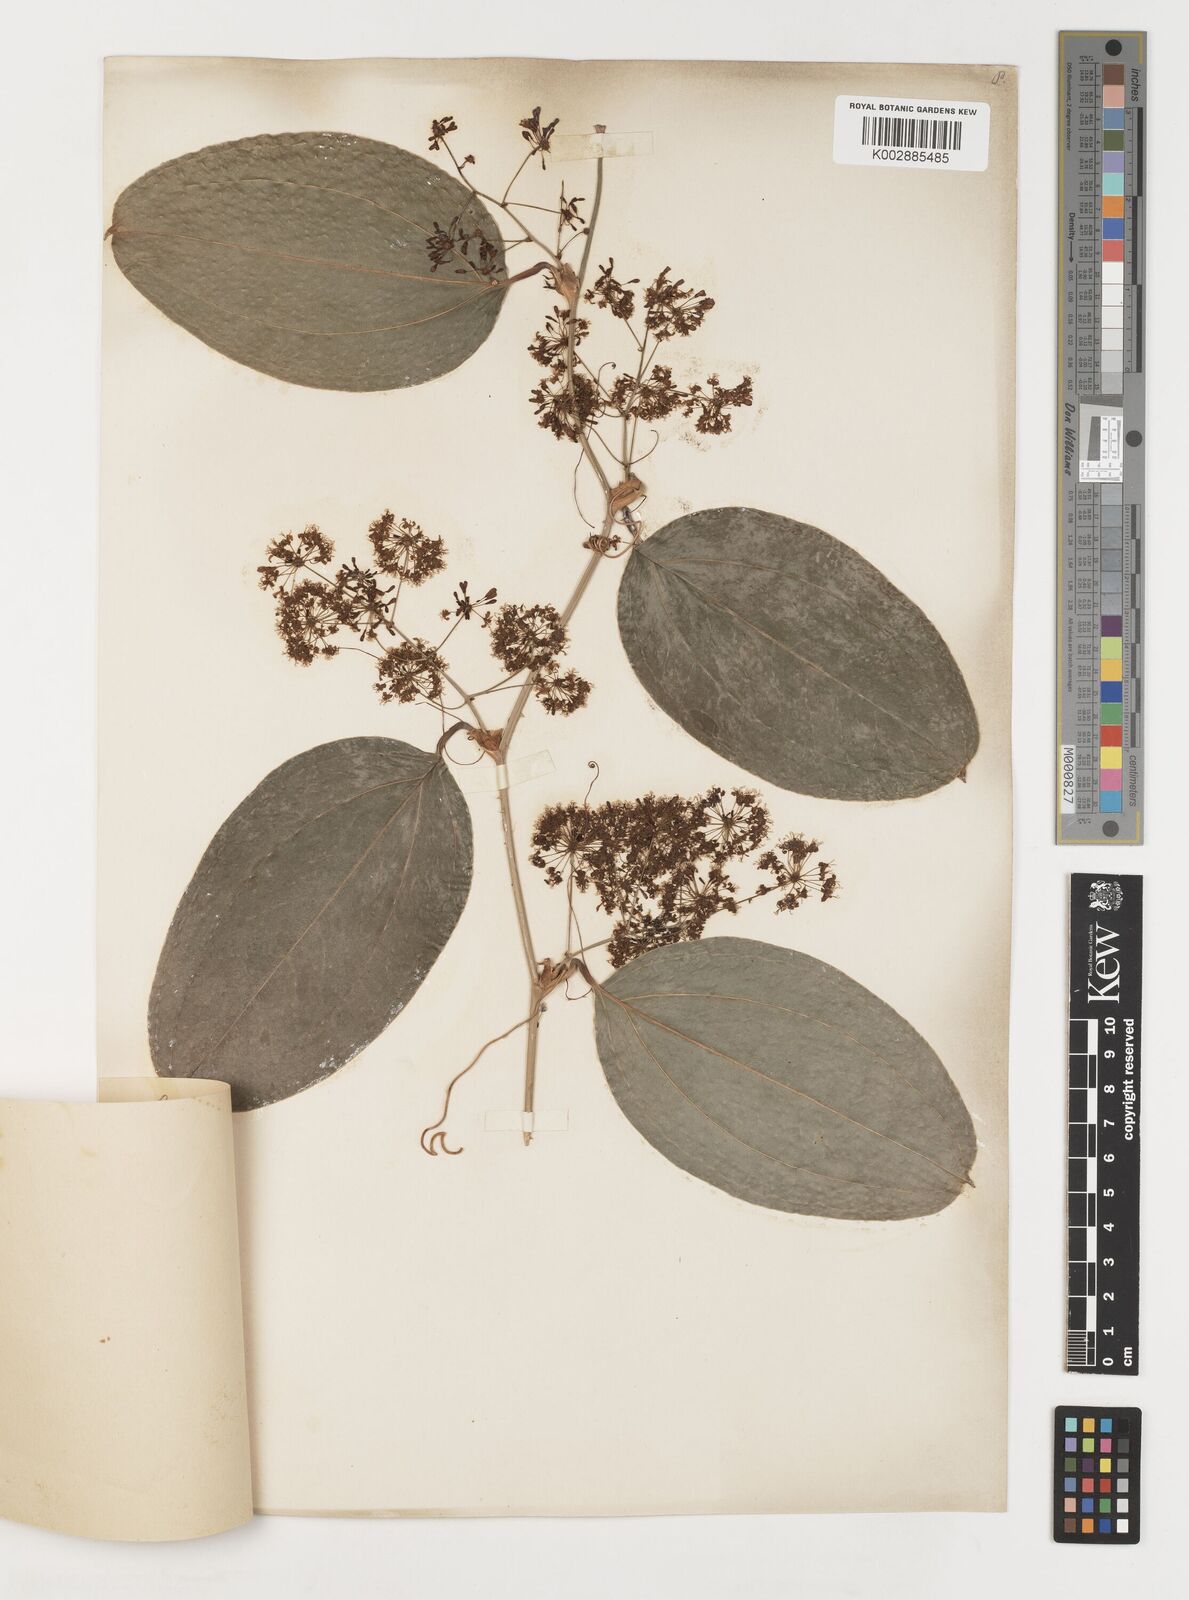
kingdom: Plantae
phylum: Tracheophyta
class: Liliopsida
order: Liliales
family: Smilacaceae
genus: Smilax
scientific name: Smilax
